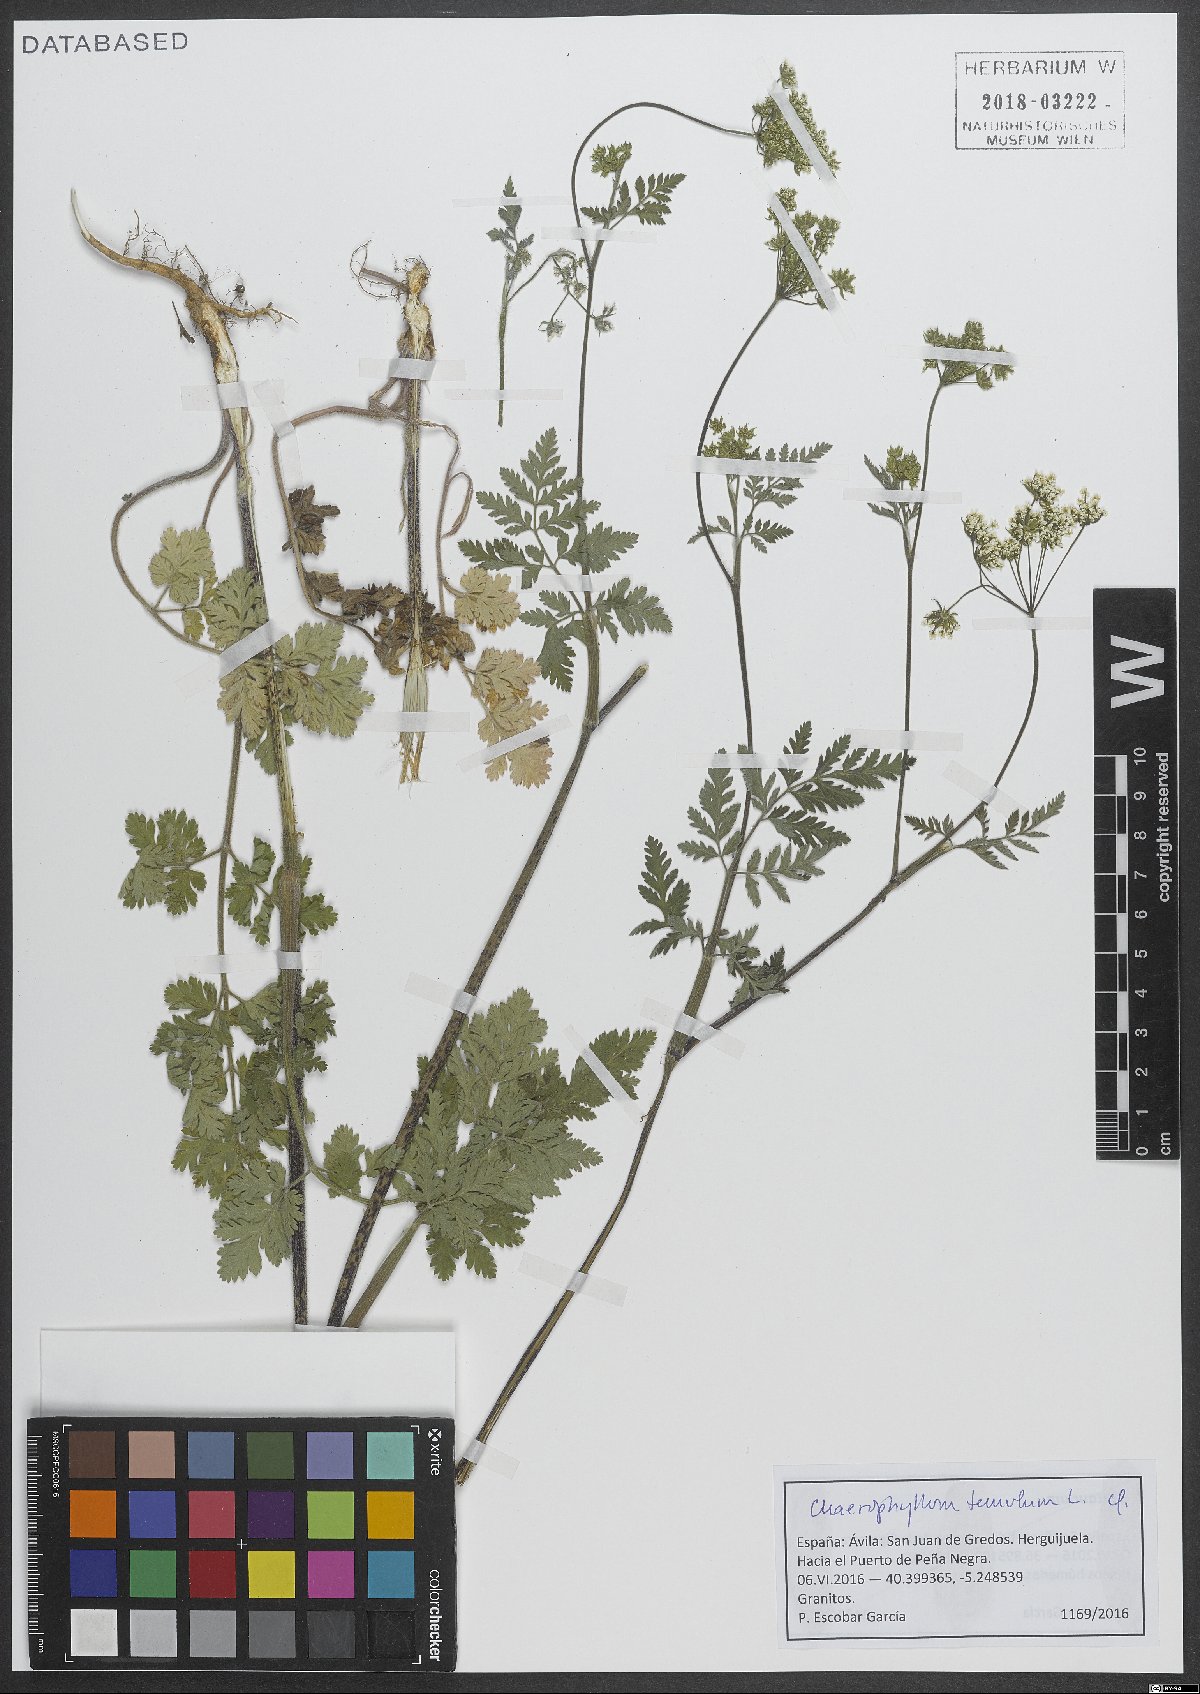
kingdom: Plantae
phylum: Tracheophyta
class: Magnoliopsida
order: Apiales
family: Apiaceae
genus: Chaerophyllum
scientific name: Chaerophyllum temulum
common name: Rough chervil
